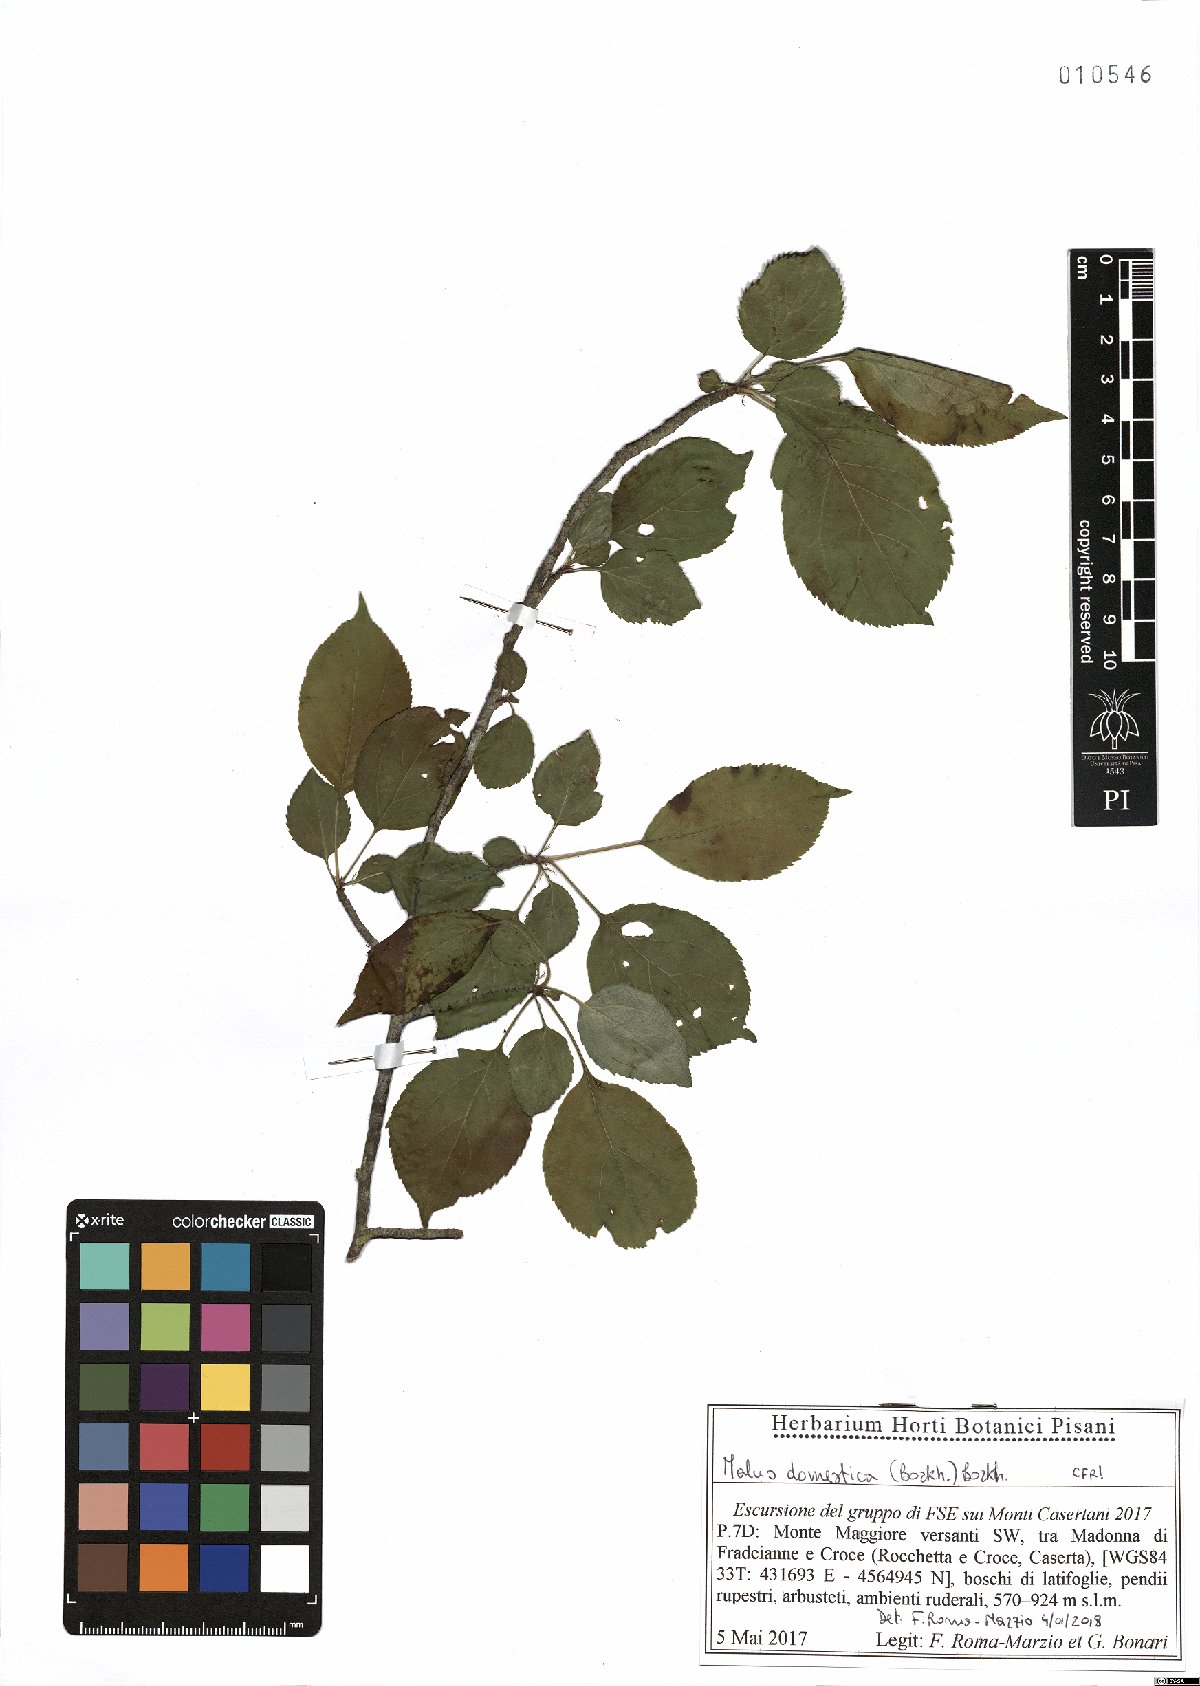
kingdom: Plantae
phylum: Tracheophyta
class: Magnoliopsida
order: Rosales
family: Rosaceae
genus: Malus
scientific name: Malus domestica
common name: Apple
